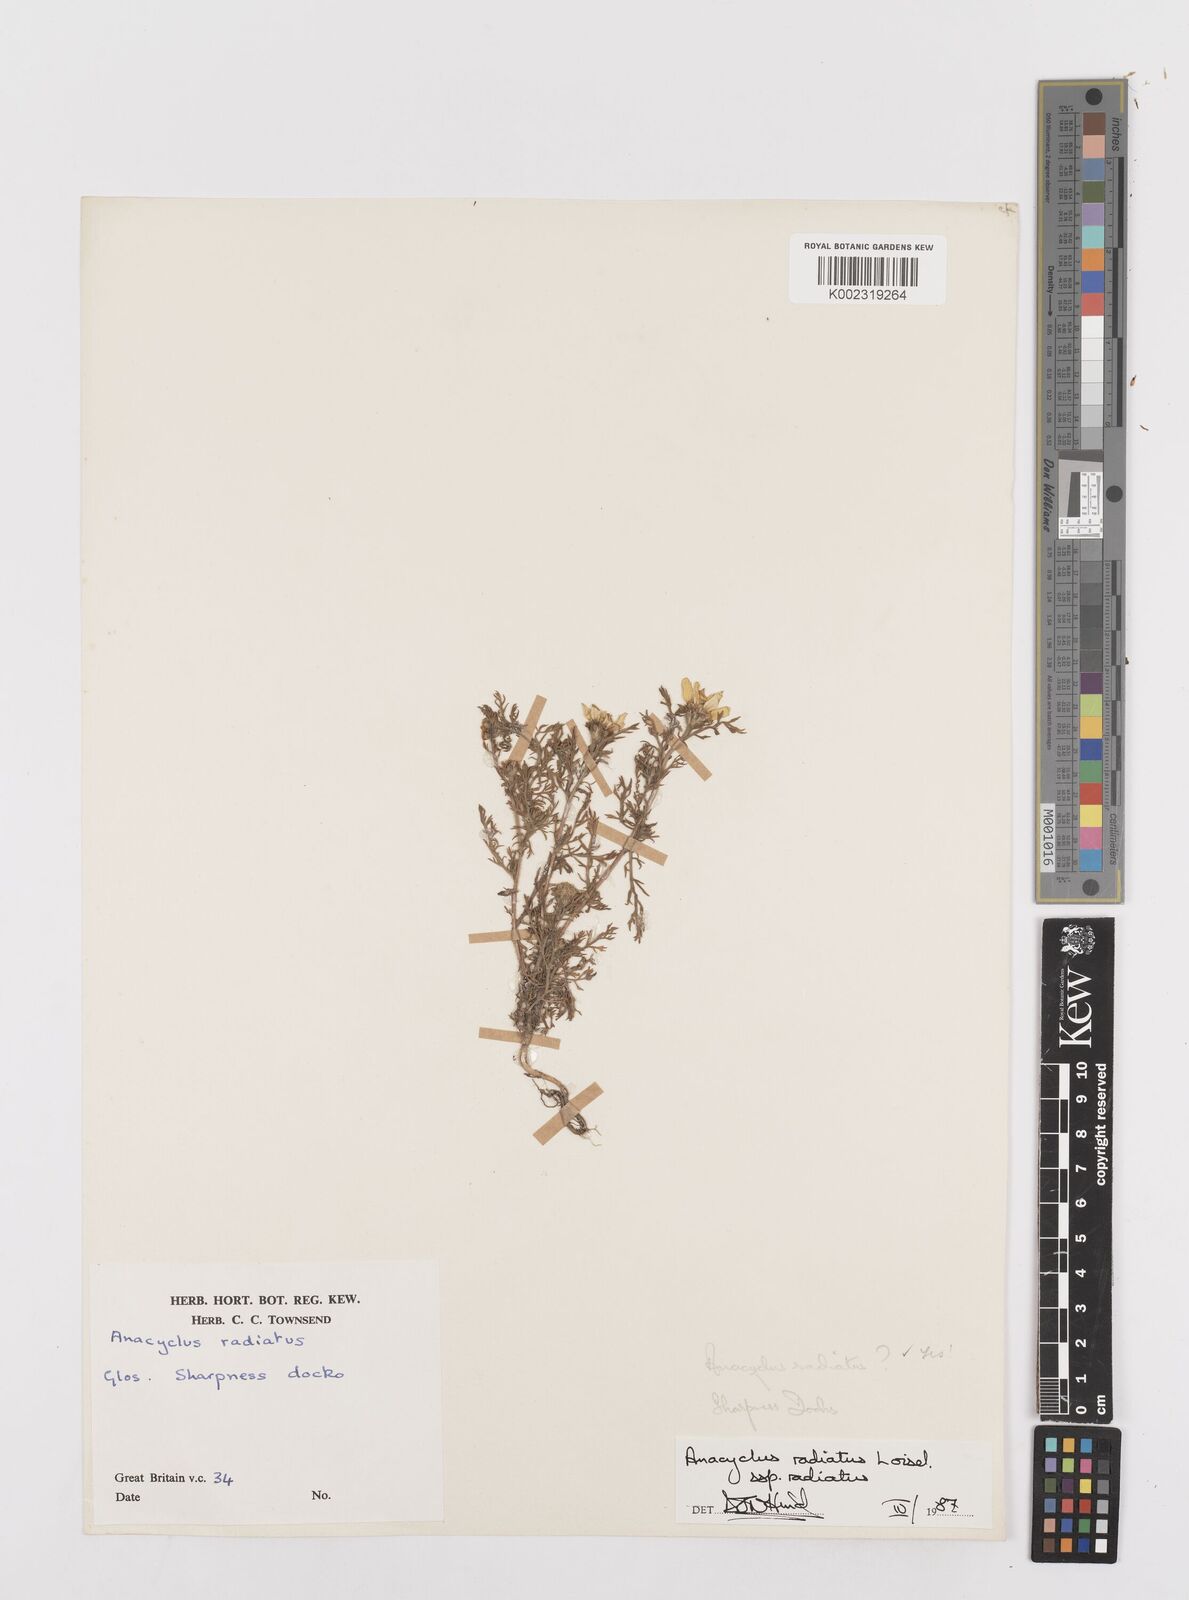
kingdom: Plantae
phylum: Tracheophyta
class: Magnoliopsida
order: Asterales
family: Asteraceae
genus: Anacyclus
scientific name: Anacyclus radiatus
